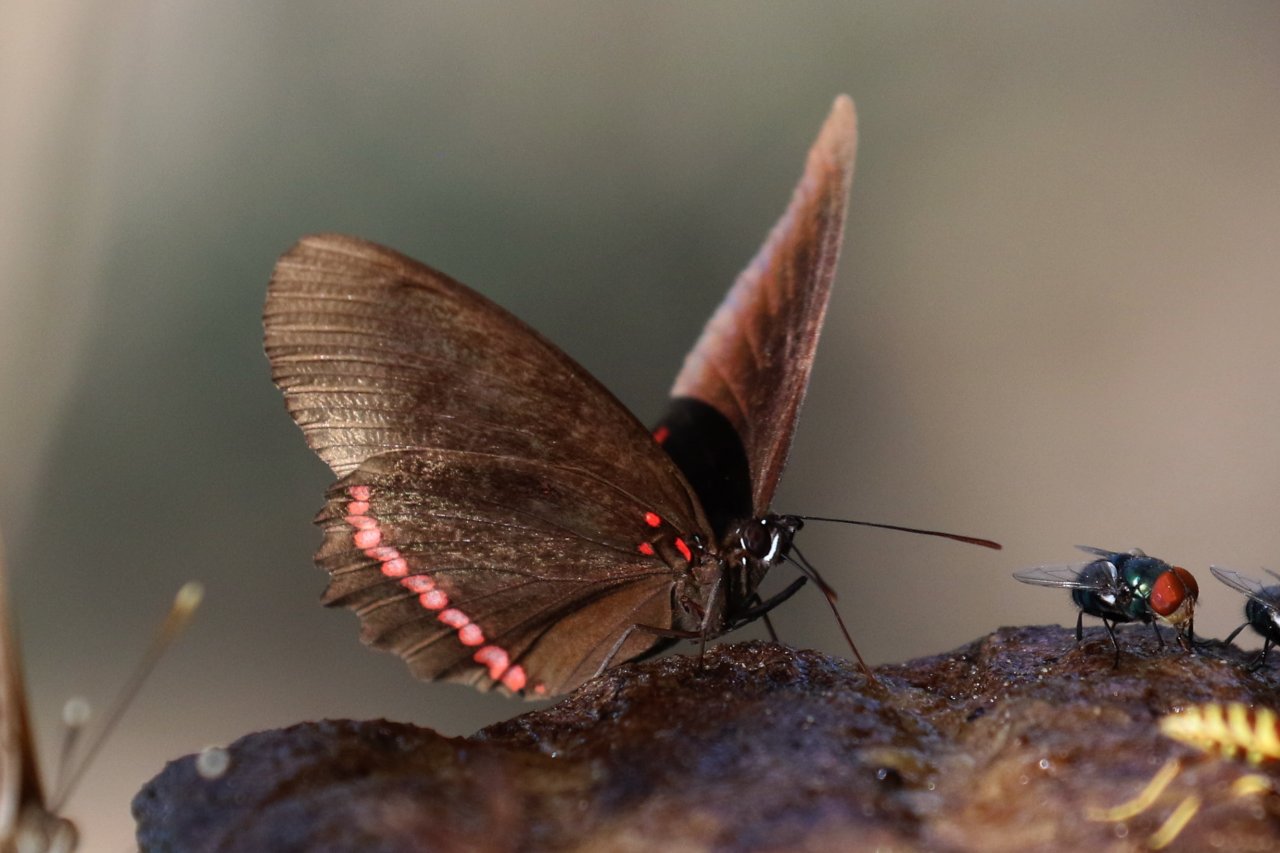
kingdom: Animalia
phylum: Arthropoda
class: Insecta
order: Lepidoptera
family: Sesiidae
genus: Sesia
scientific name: Sesia Biblis hyperia
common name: Red Rim
